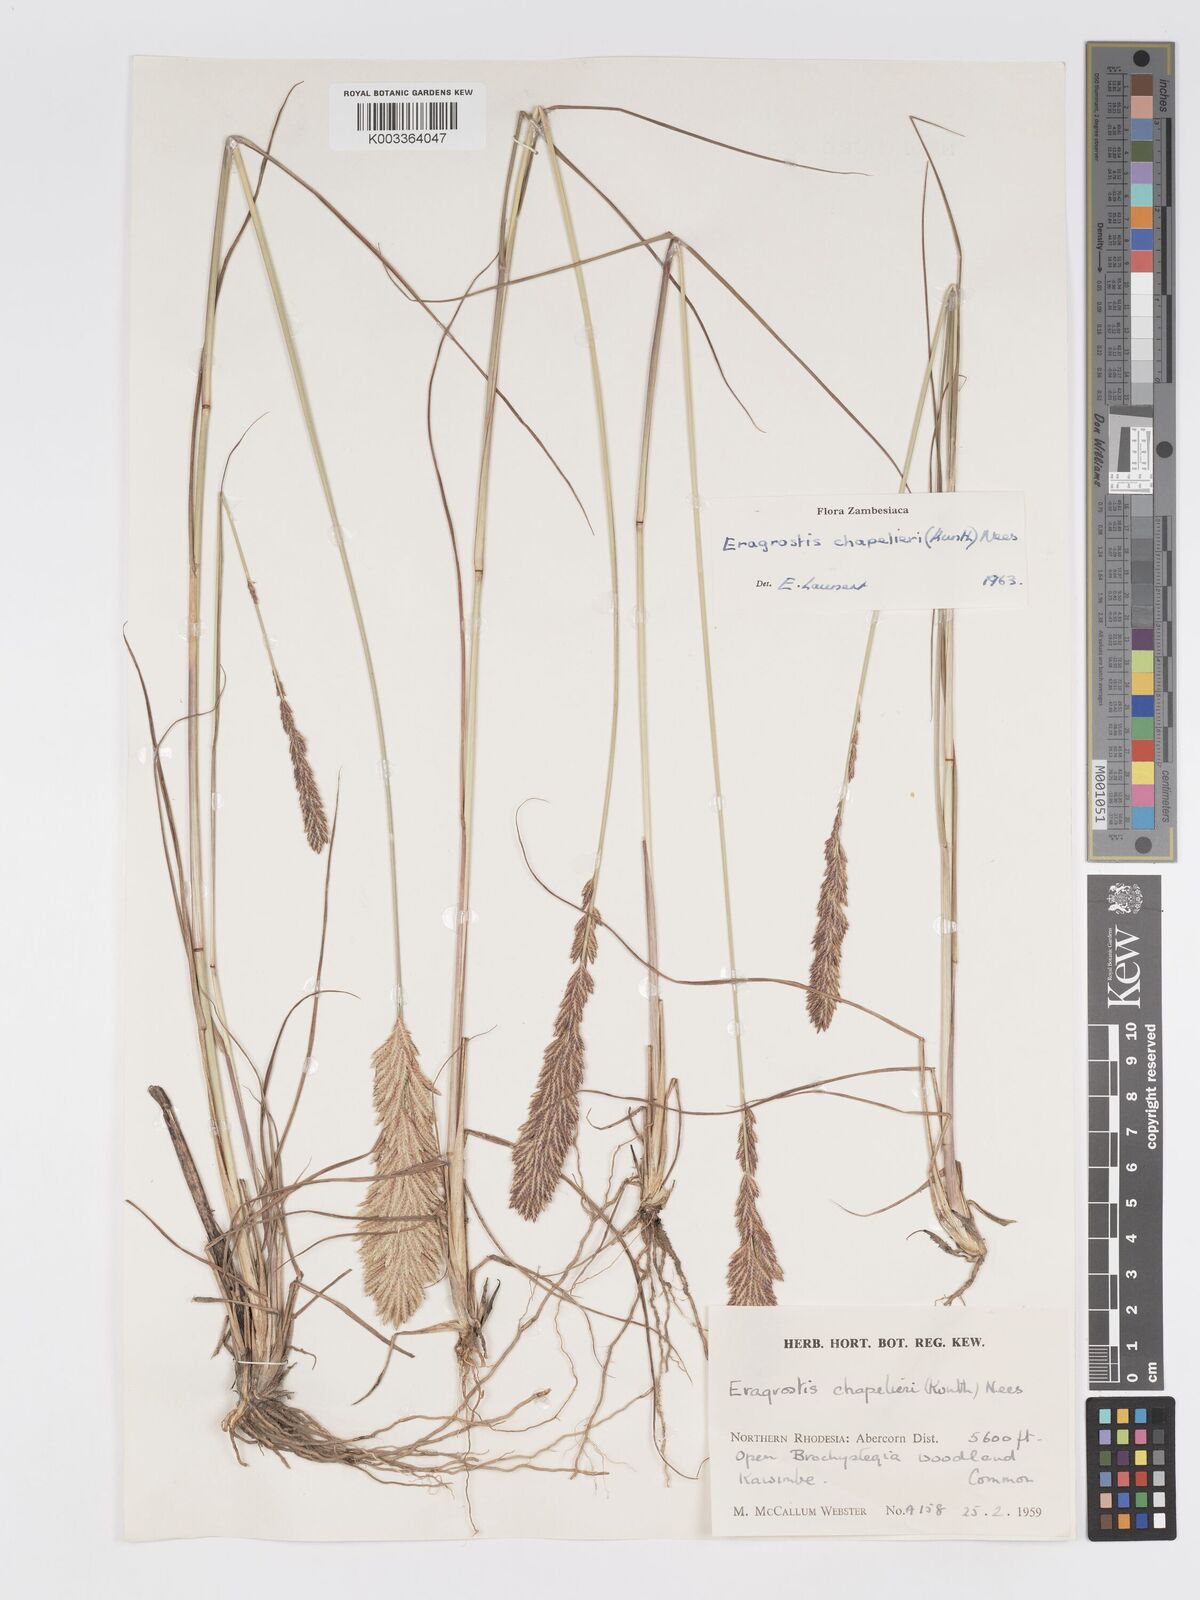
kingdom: Plantae
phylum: Tracheophyta
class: Liliopsida
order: Poales
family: Poaceae
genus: Eragrostis
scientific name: Eragrostis chapelieri
